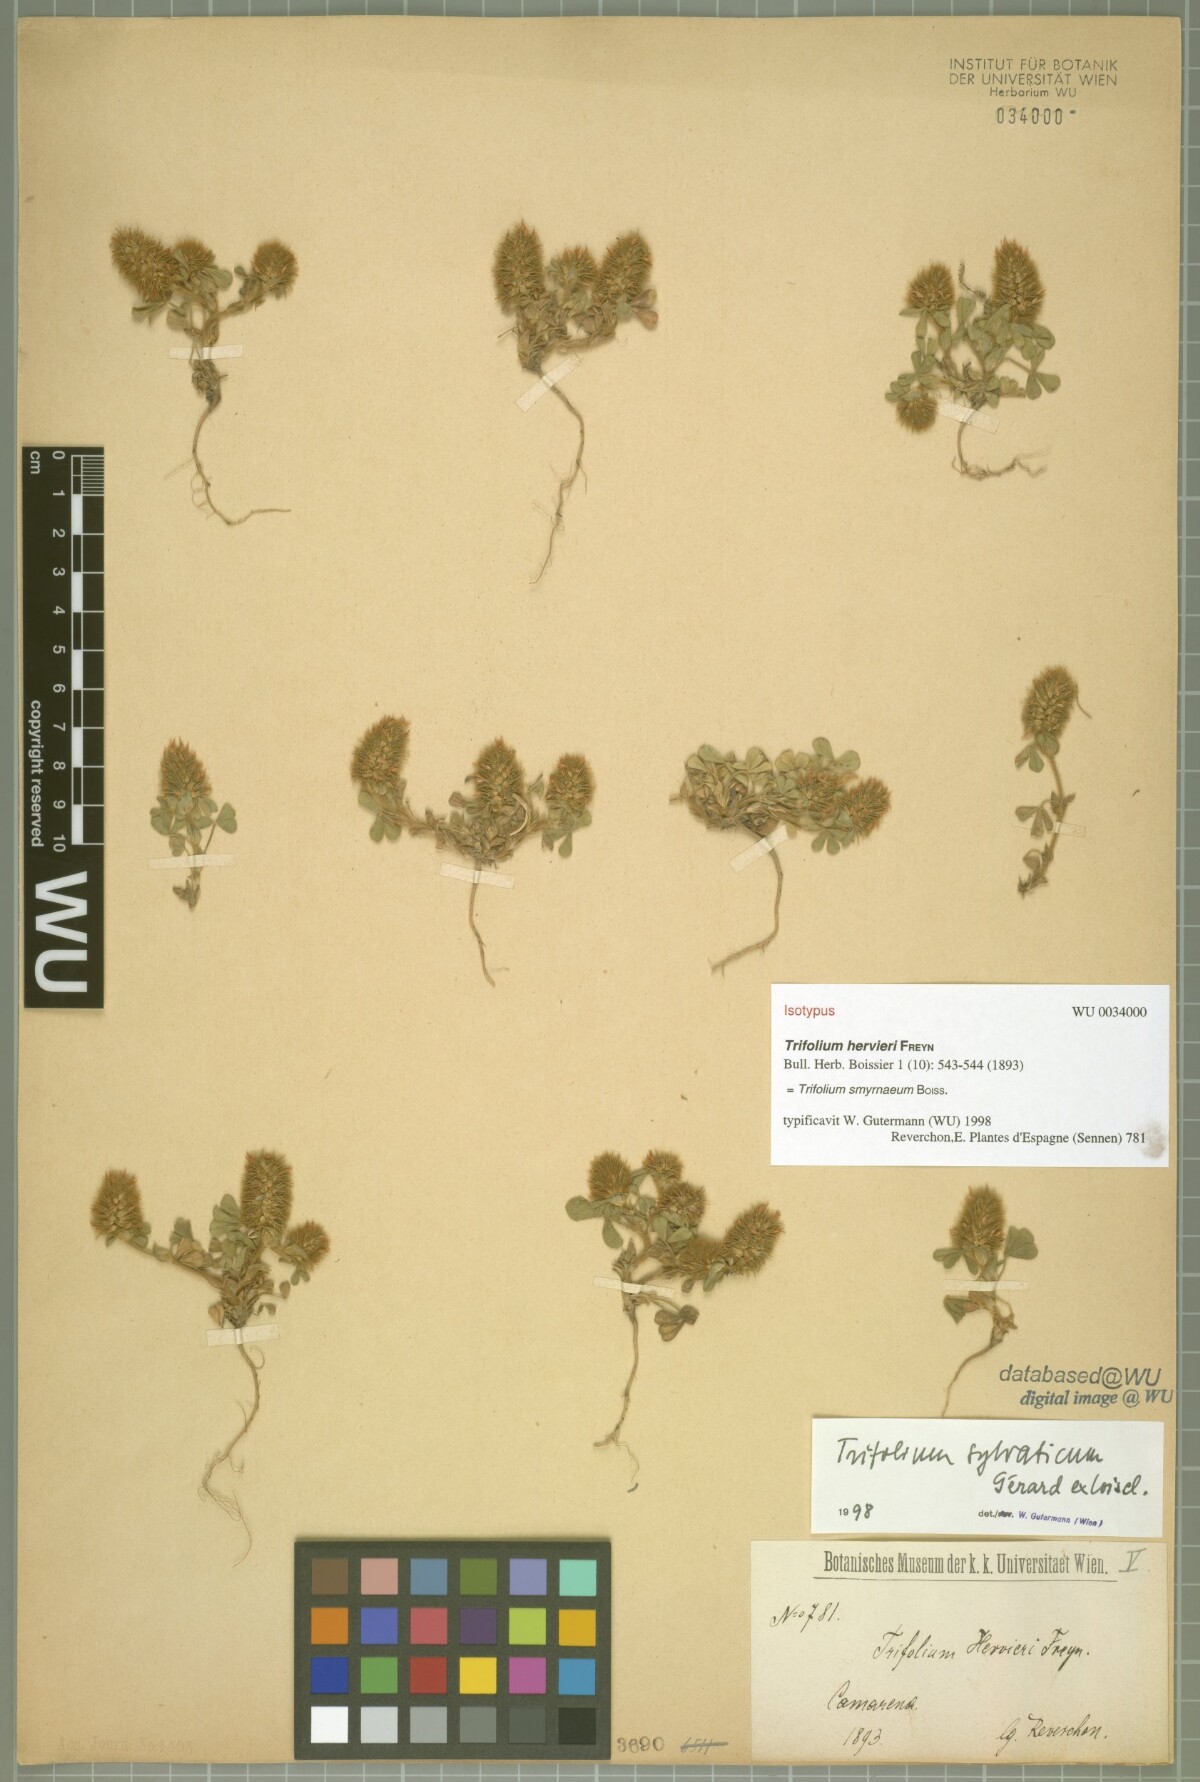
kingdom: Plantae
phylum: Tracheophyta
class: Magnoliopsida
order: Fabales
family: Fabaceae
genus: Trifolium
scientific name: Trifolium sylvaticum
